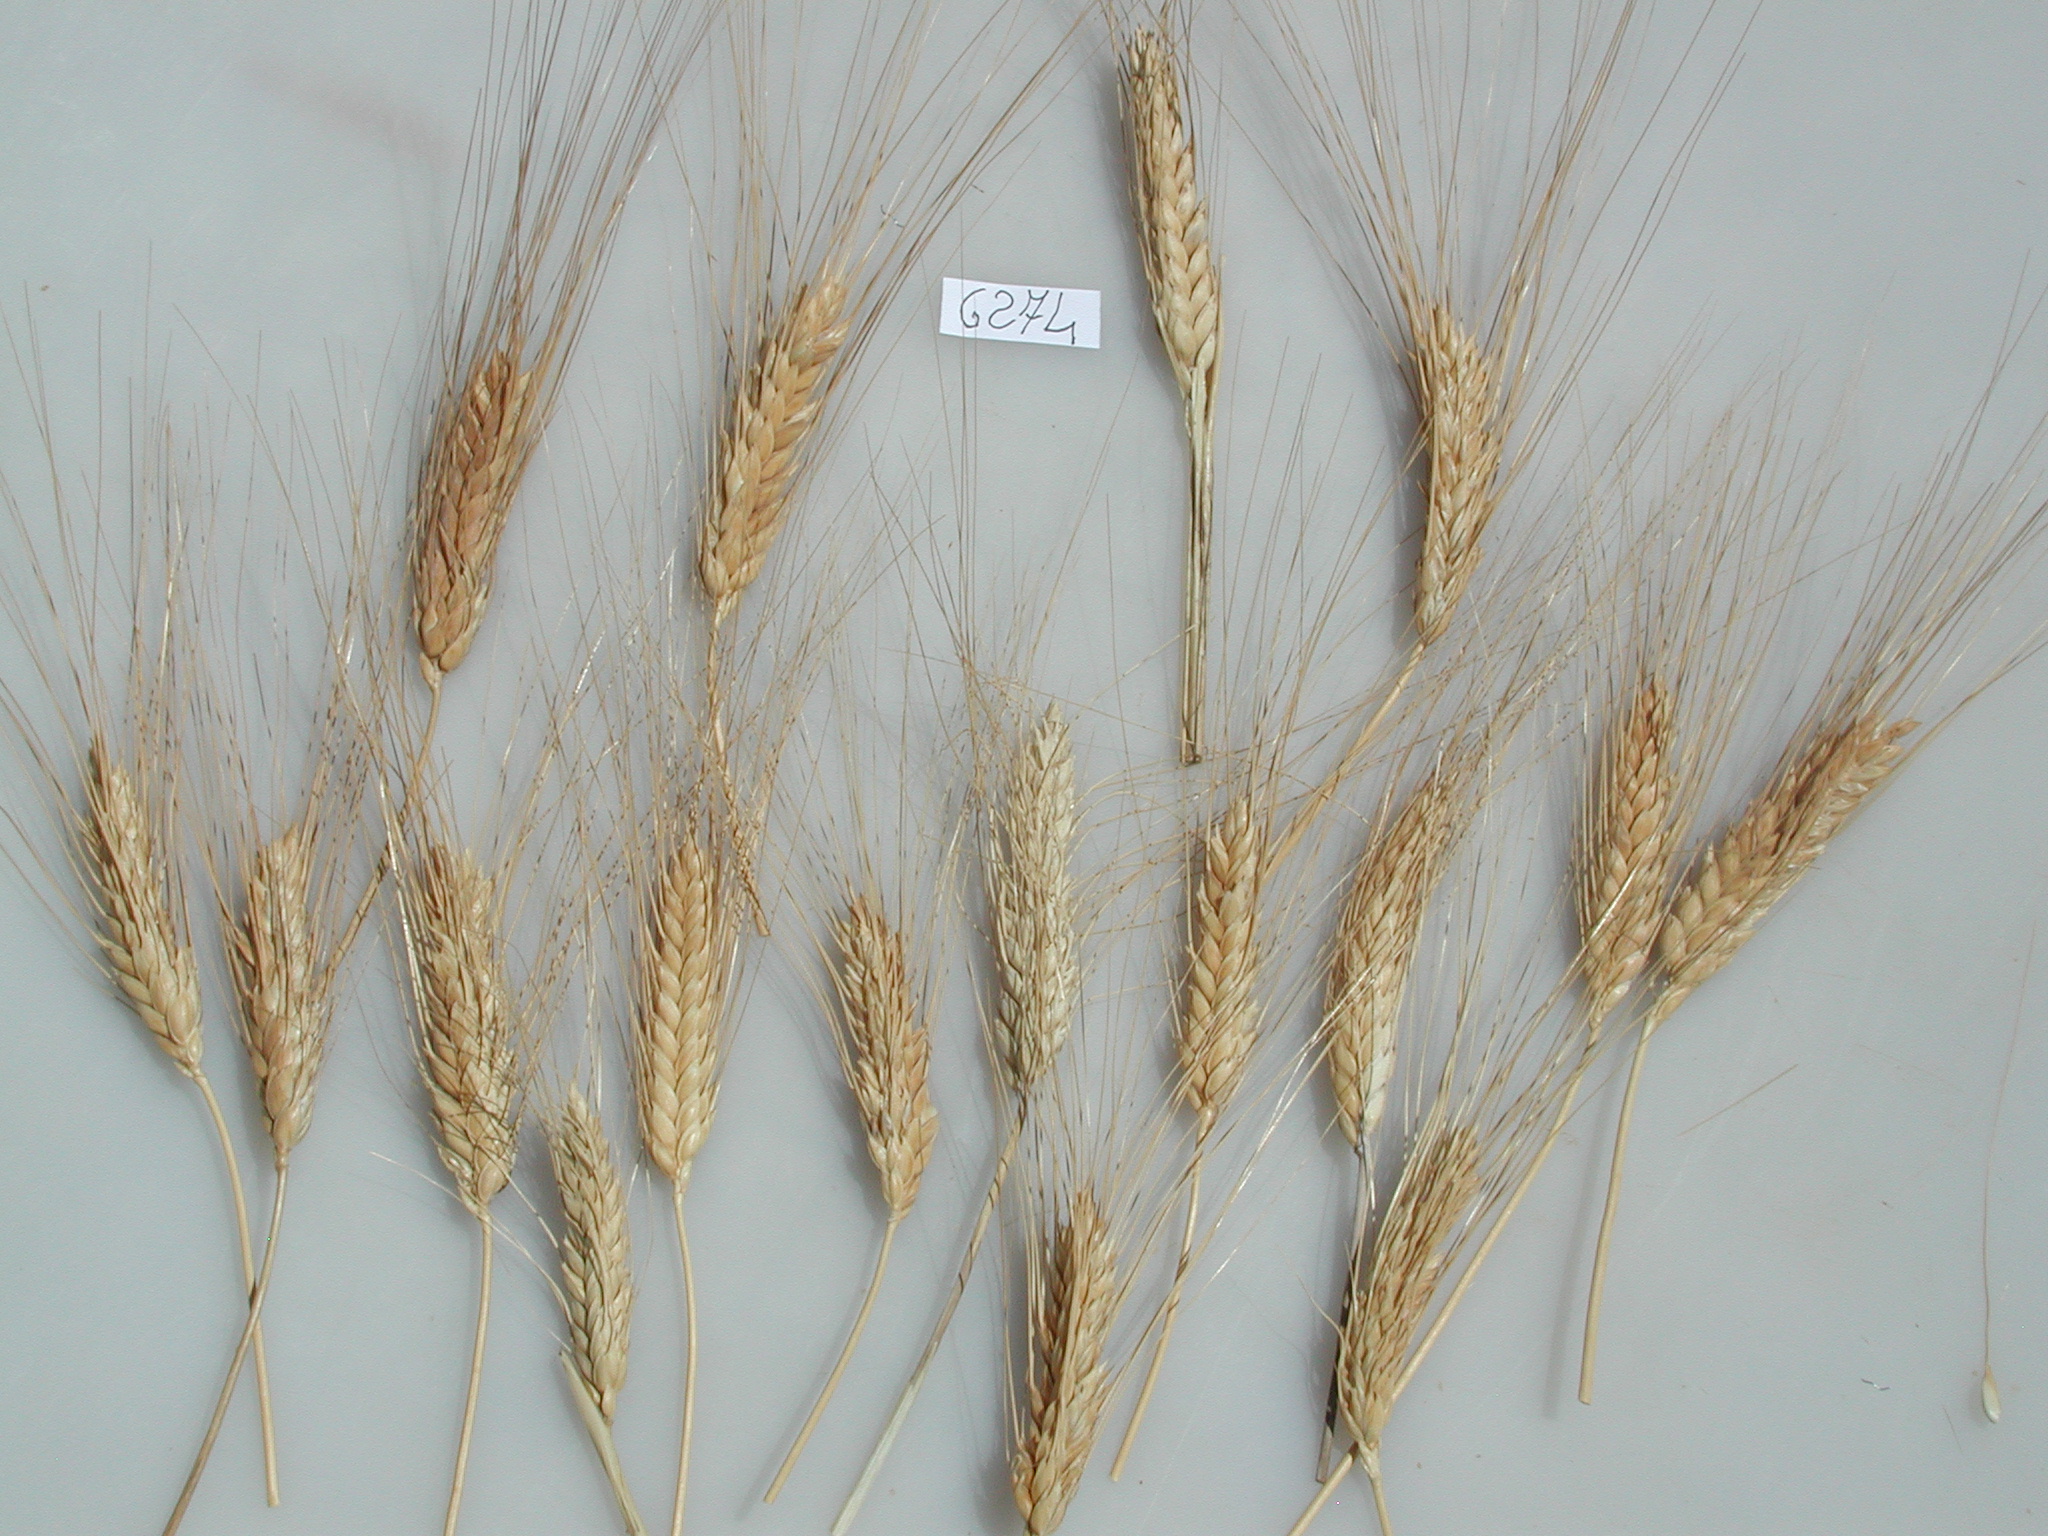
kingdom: Plantae
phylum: Tracheophyta
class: Liliopsida
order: Poales
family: Poaceae
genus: Triticum
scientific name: Triticum turgidum
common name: Wheat
